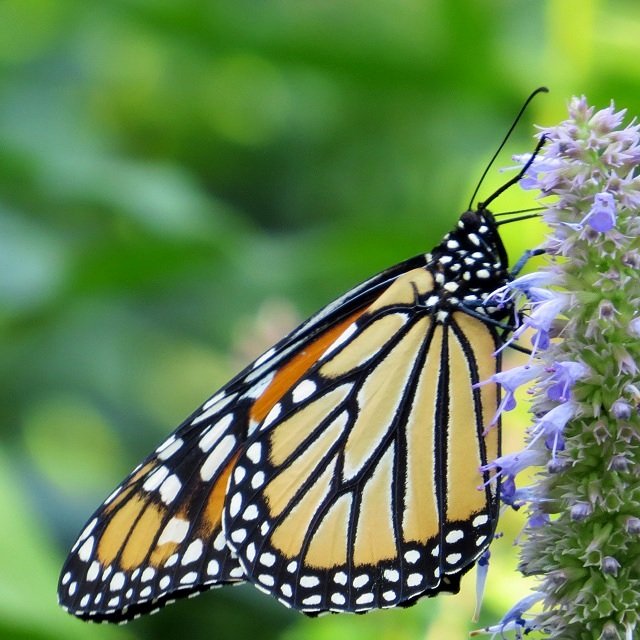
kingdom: Animalia
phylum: Arthropoda
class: Insecta
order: Lepidoptera
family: Nymphalidae
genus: Danaus
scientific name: Danaus plexippus
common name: Monarch
